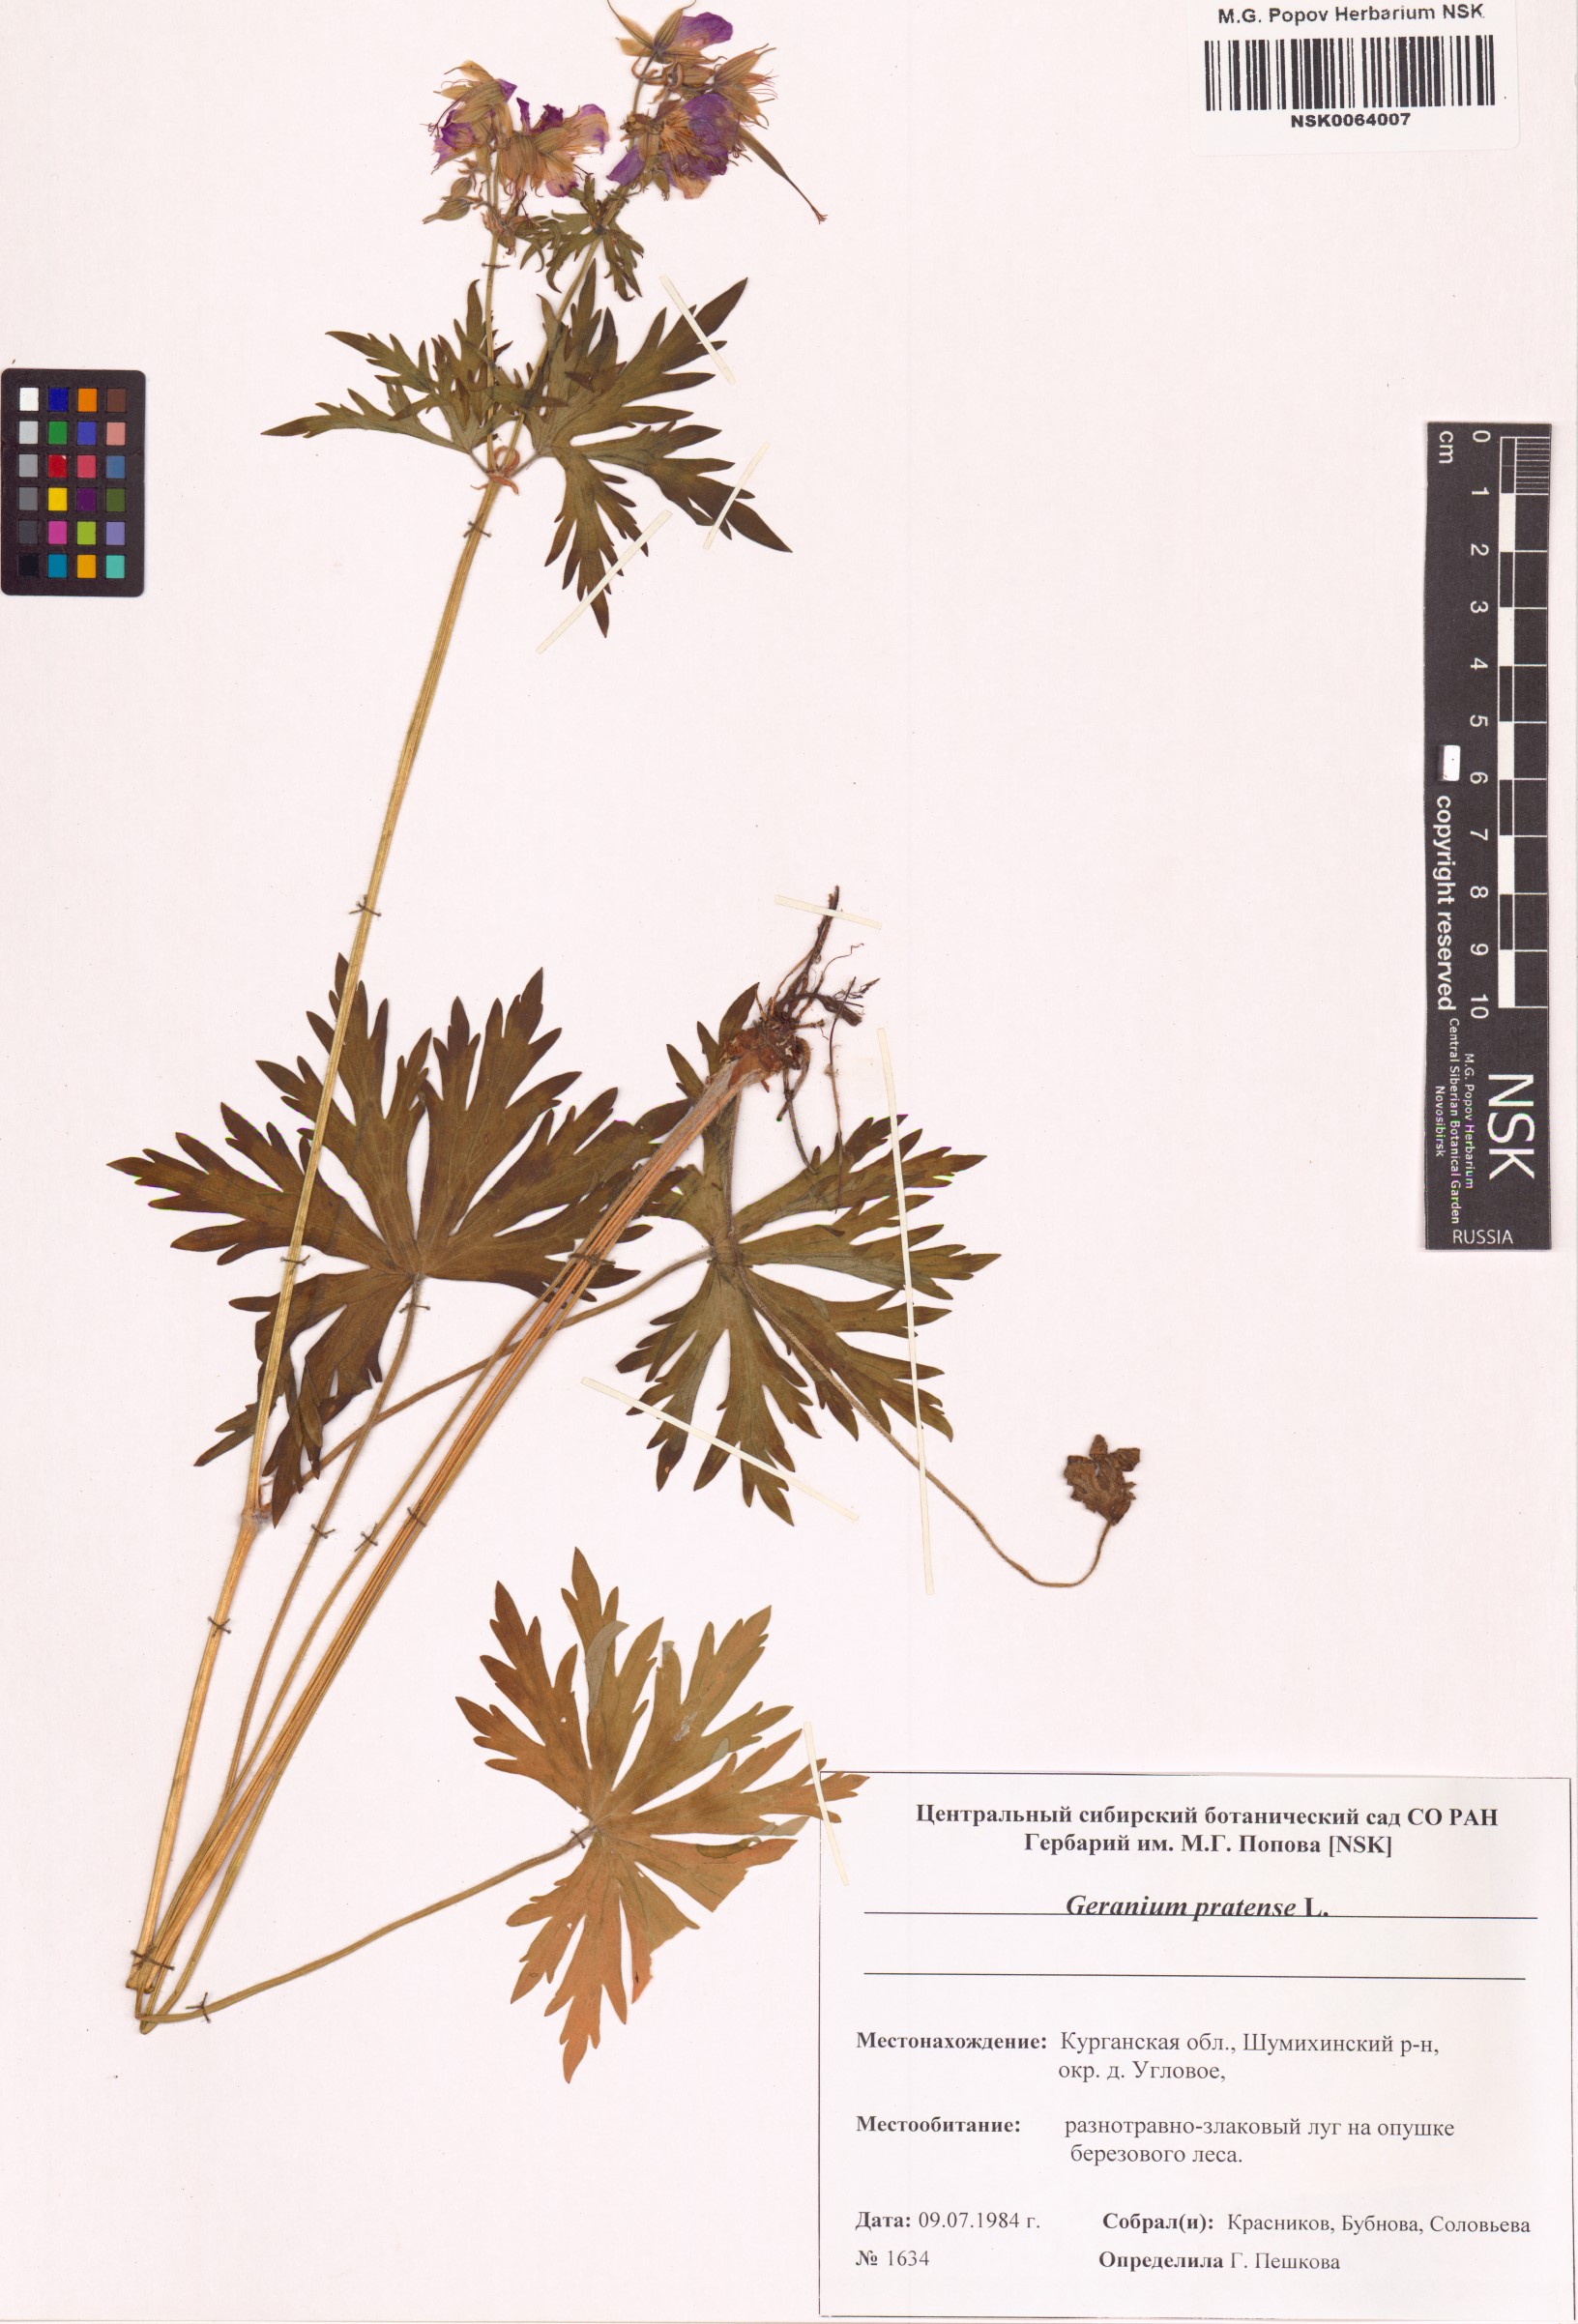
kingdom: Plantae
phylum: Tracheophyta
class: Magnoliopsida
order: Geraniales
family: Geraniaceae
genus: Geranium
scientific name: Geranium pratense
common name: Meadow crane's-bill
